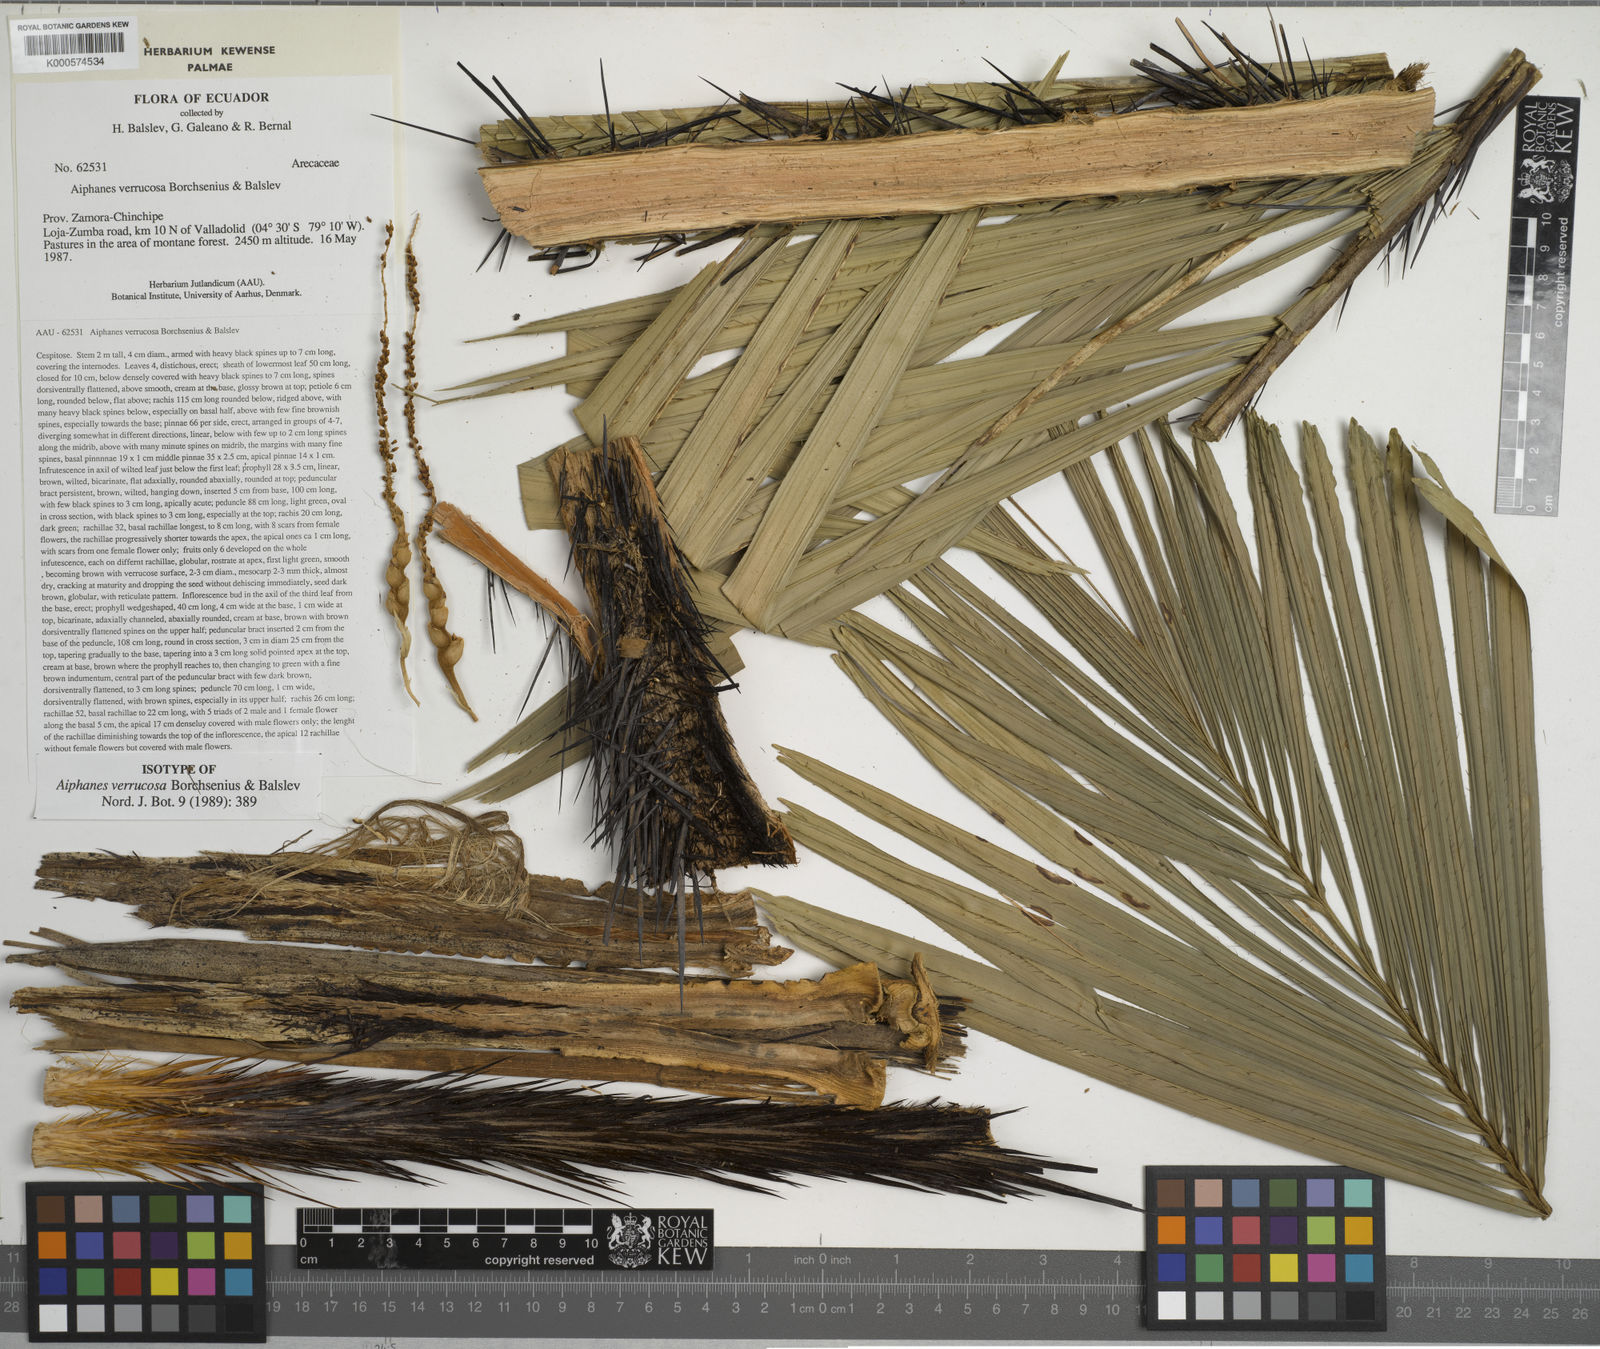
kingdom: Plantae
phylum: Tracheophyta
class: Liliopsida
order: Arecales
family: Arecaceae
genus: Aiphanes
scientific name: Aiphanes verrucosa
